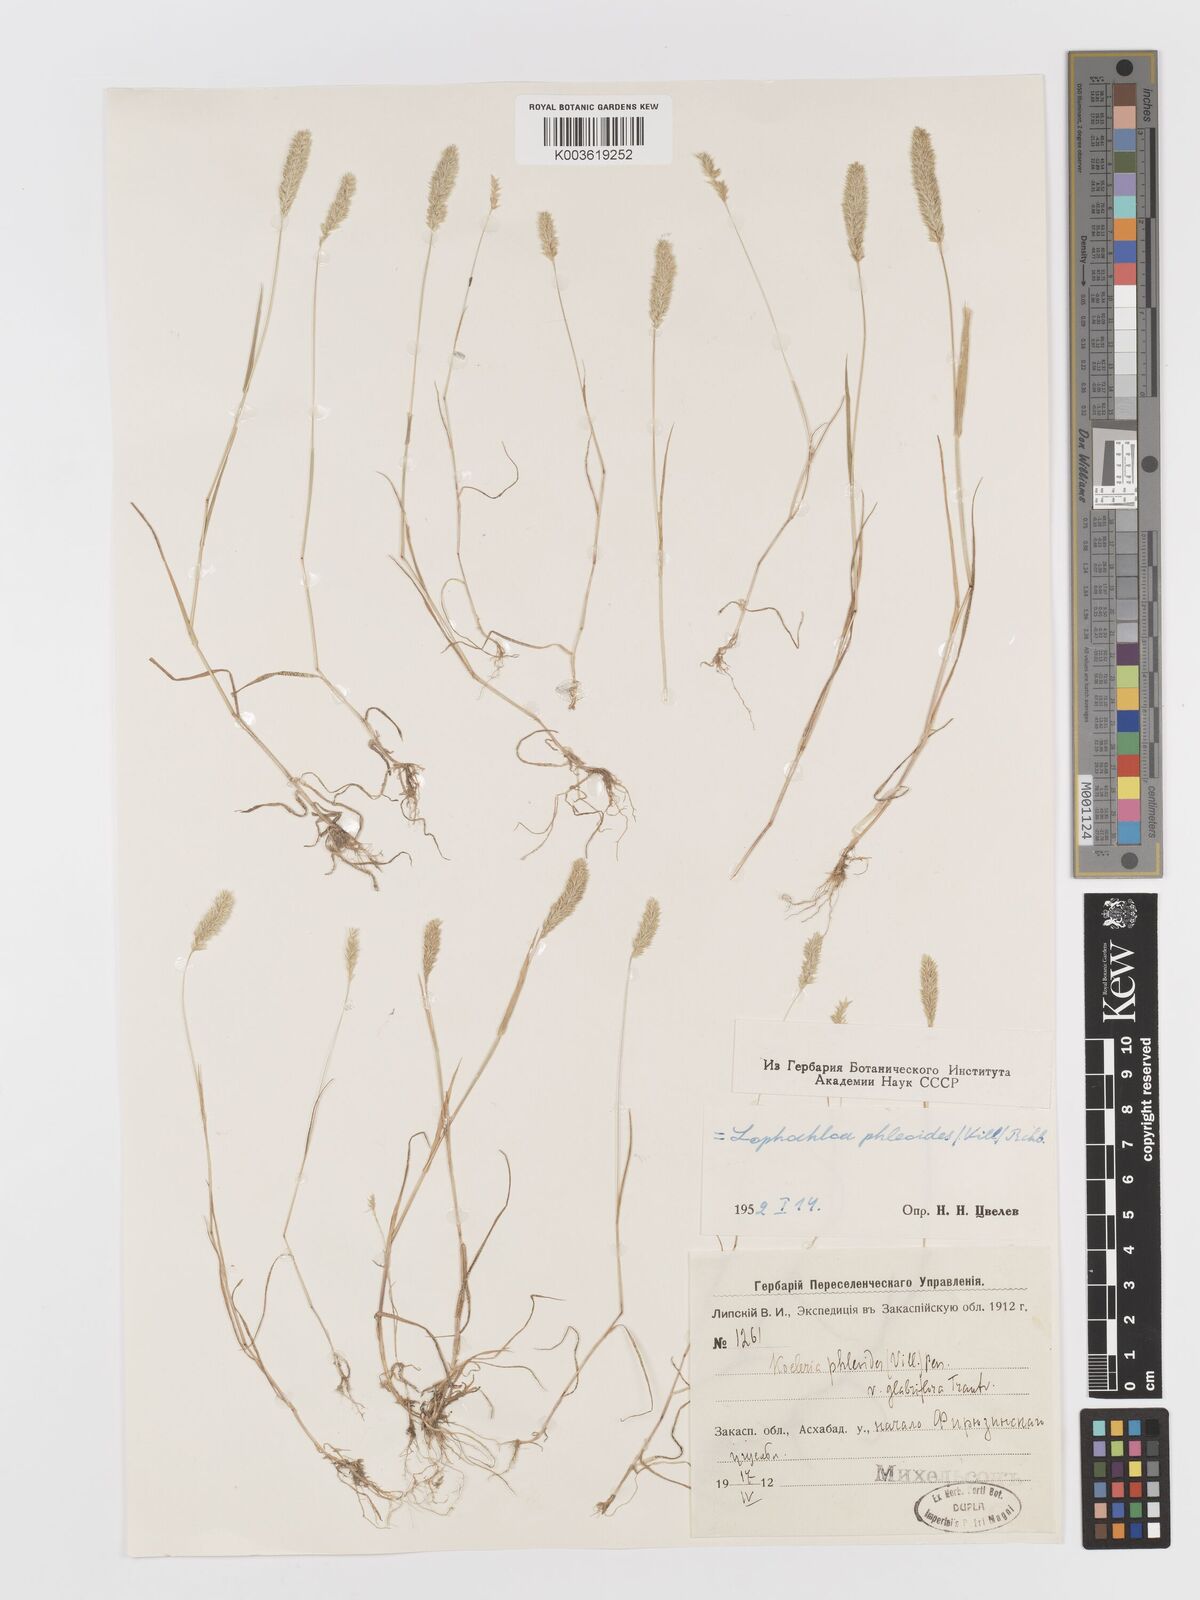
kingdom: Plantae
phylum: Tracheophyta
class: Liliopsida
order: Poales
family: Poaceae
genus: Rostraria
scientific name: Rostraria cristata
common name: Mediterranean hair-grass
